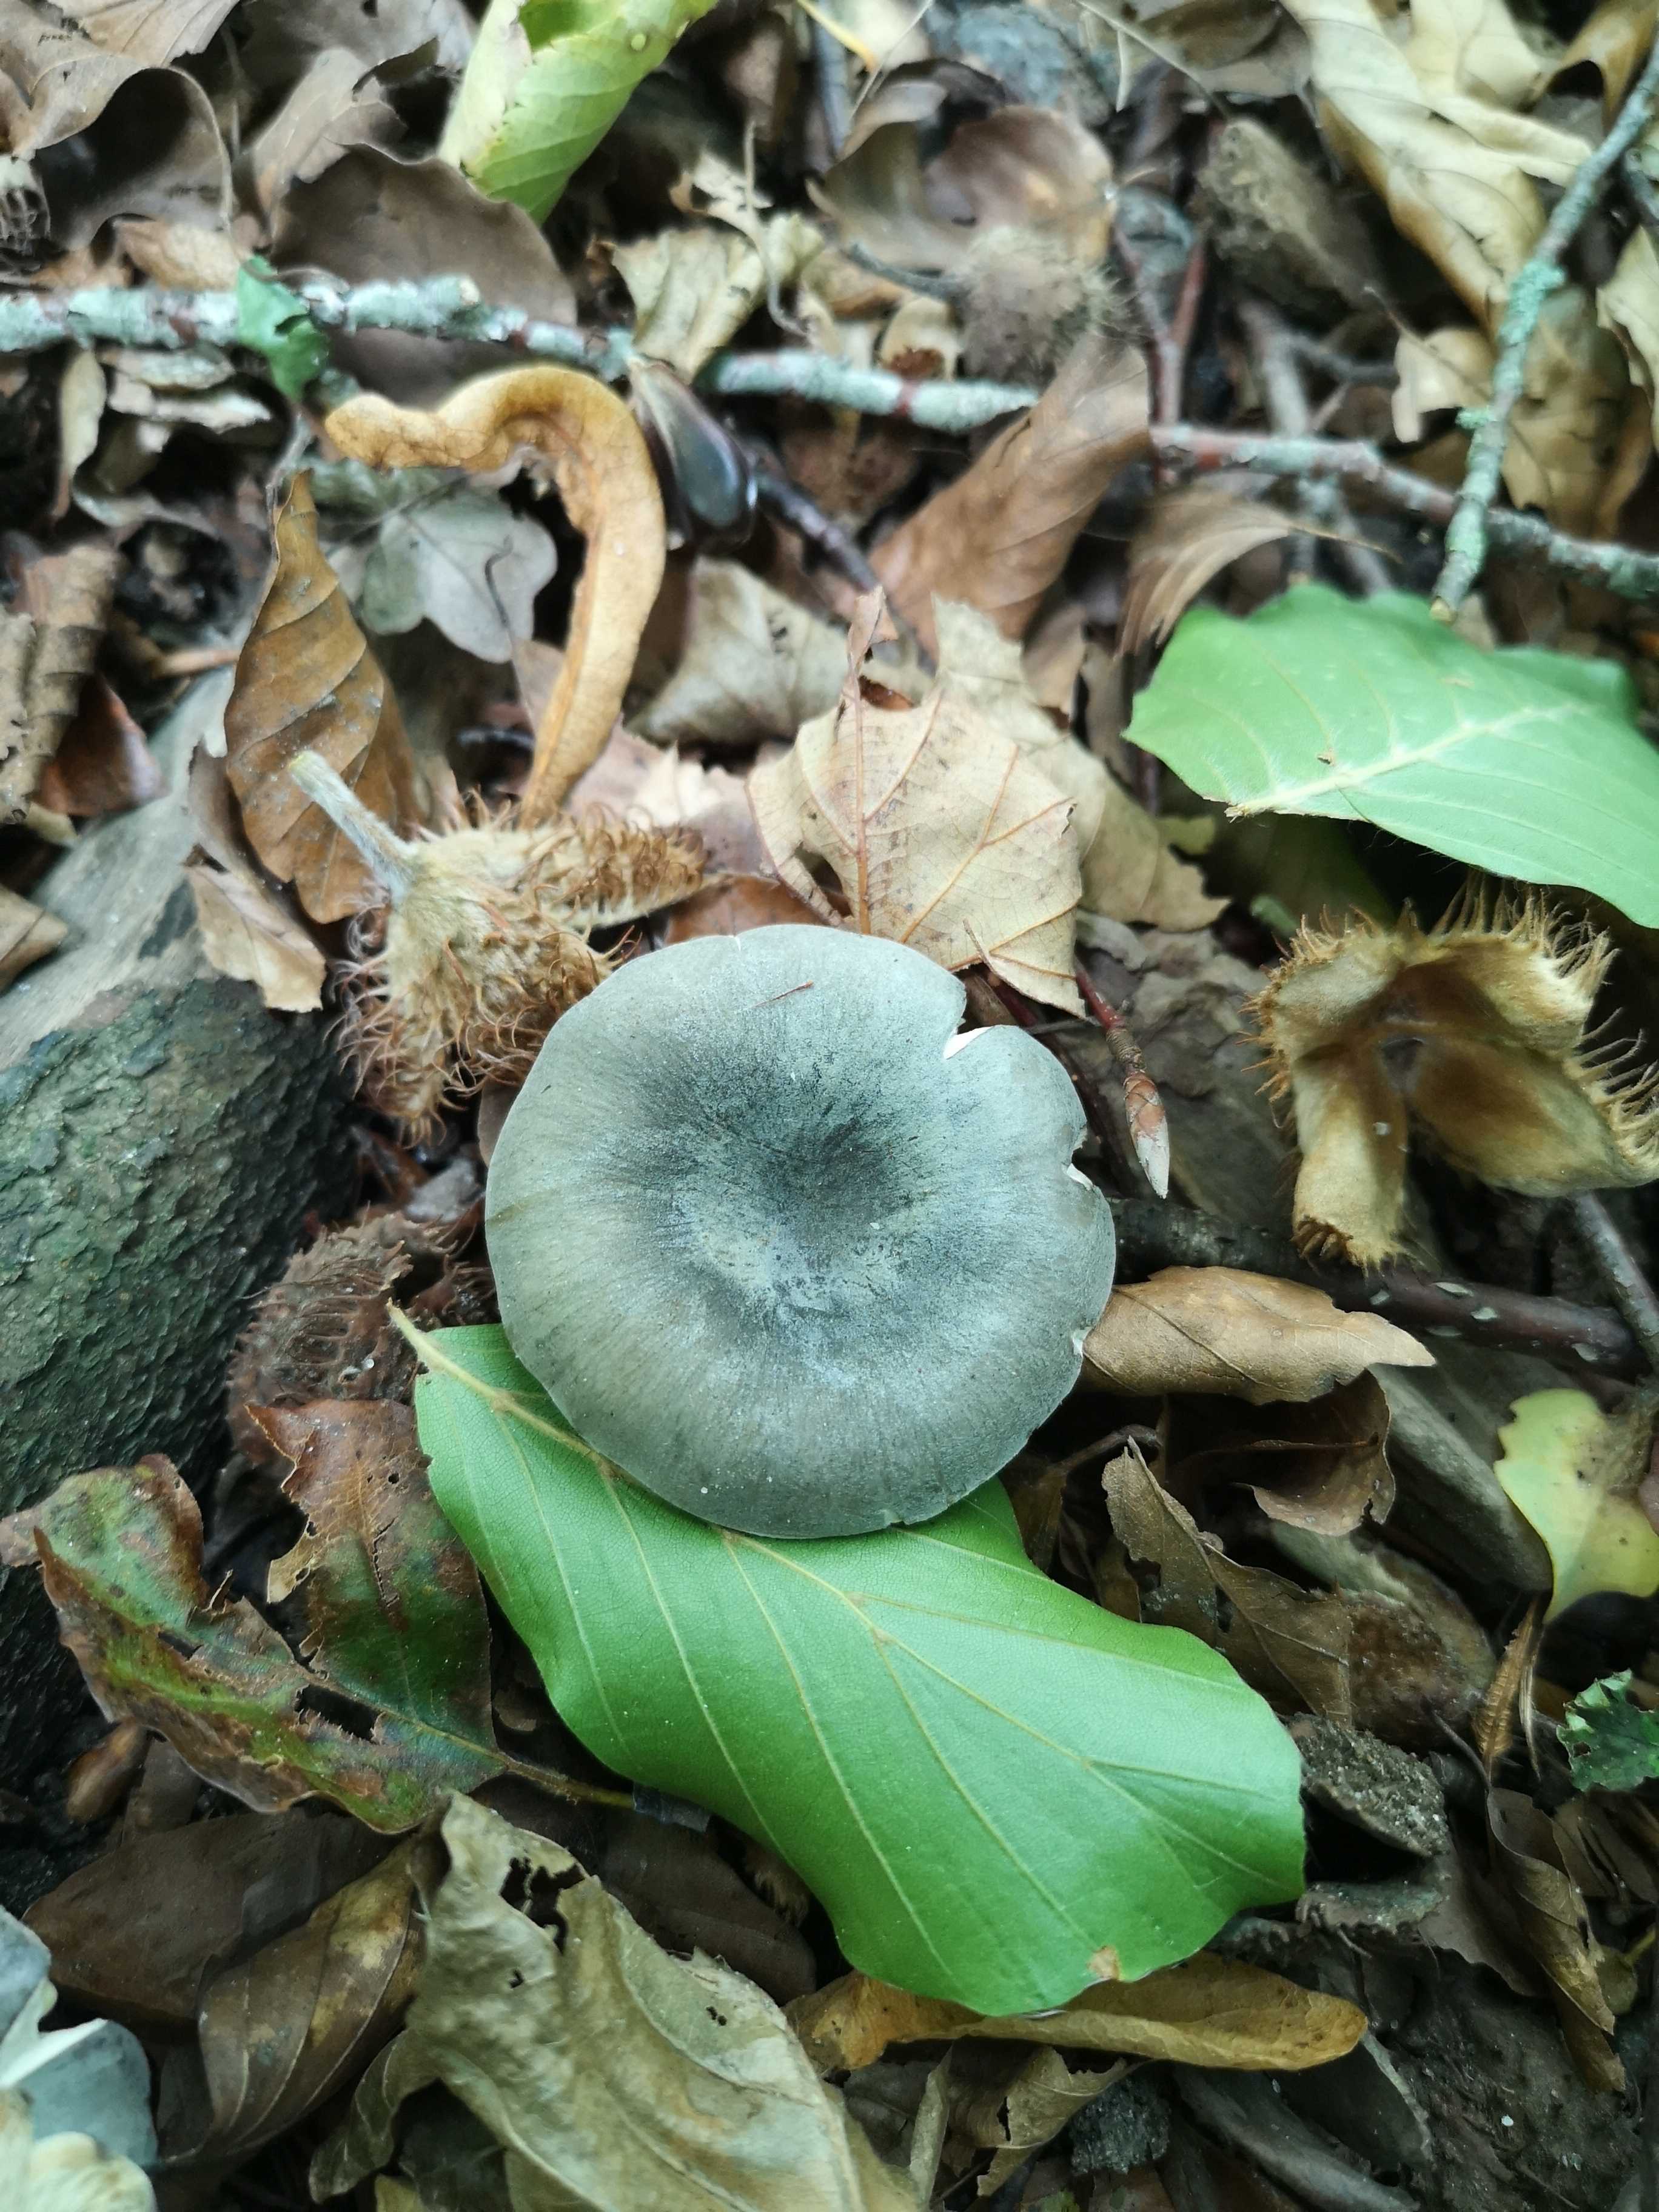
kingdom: Fungi
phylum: Basidiomycota
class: Agaricomycetes
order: Russulales
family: Russulaceae
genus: Russula
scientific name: Russula parazurea
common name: blågrå skørhat
